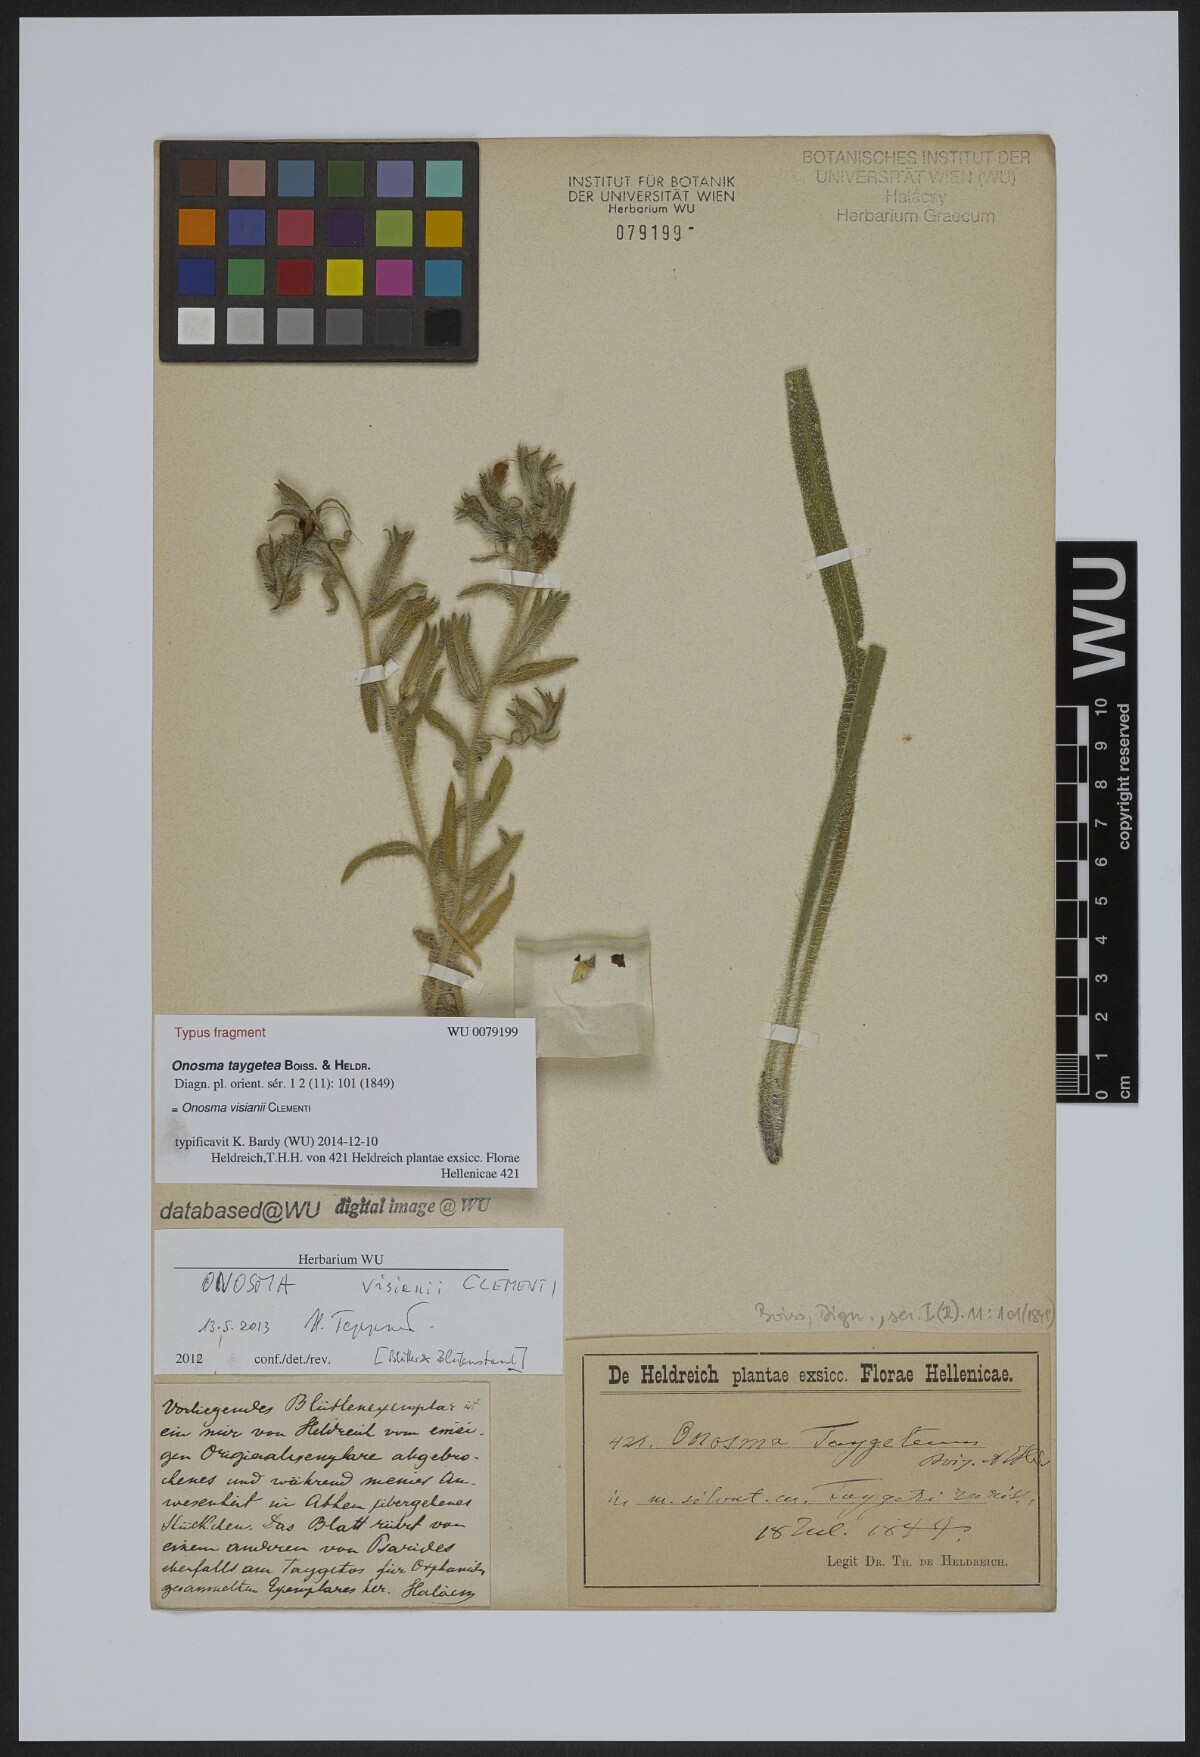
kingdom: Plantae
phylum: Tracheophyta
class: Magnoliopsida
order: Boraginales
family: Boraginaceae
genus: Onosma
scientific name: Onosma visianii
